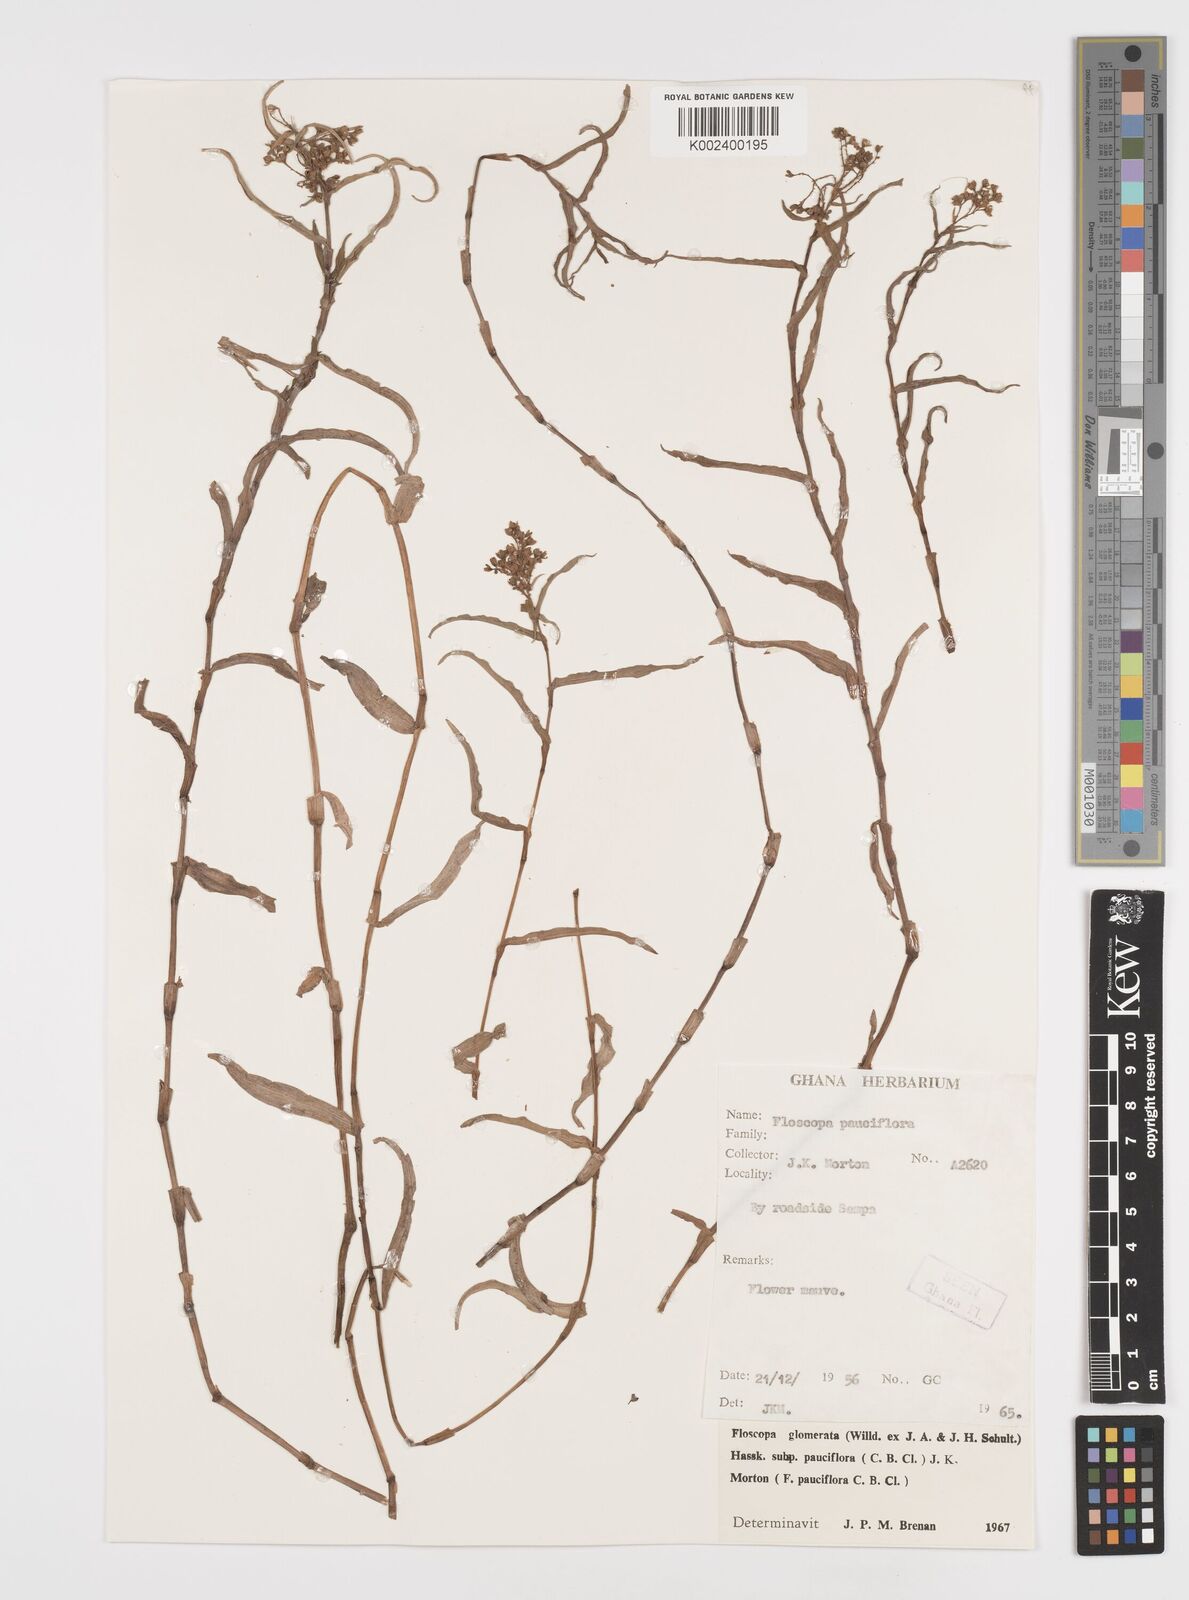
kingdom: Plantae
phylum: Tracheophyta
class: Liliopsida
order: Commelinales
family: Commelinaceae
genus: Floscopa
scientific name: Floscopa glomerata
